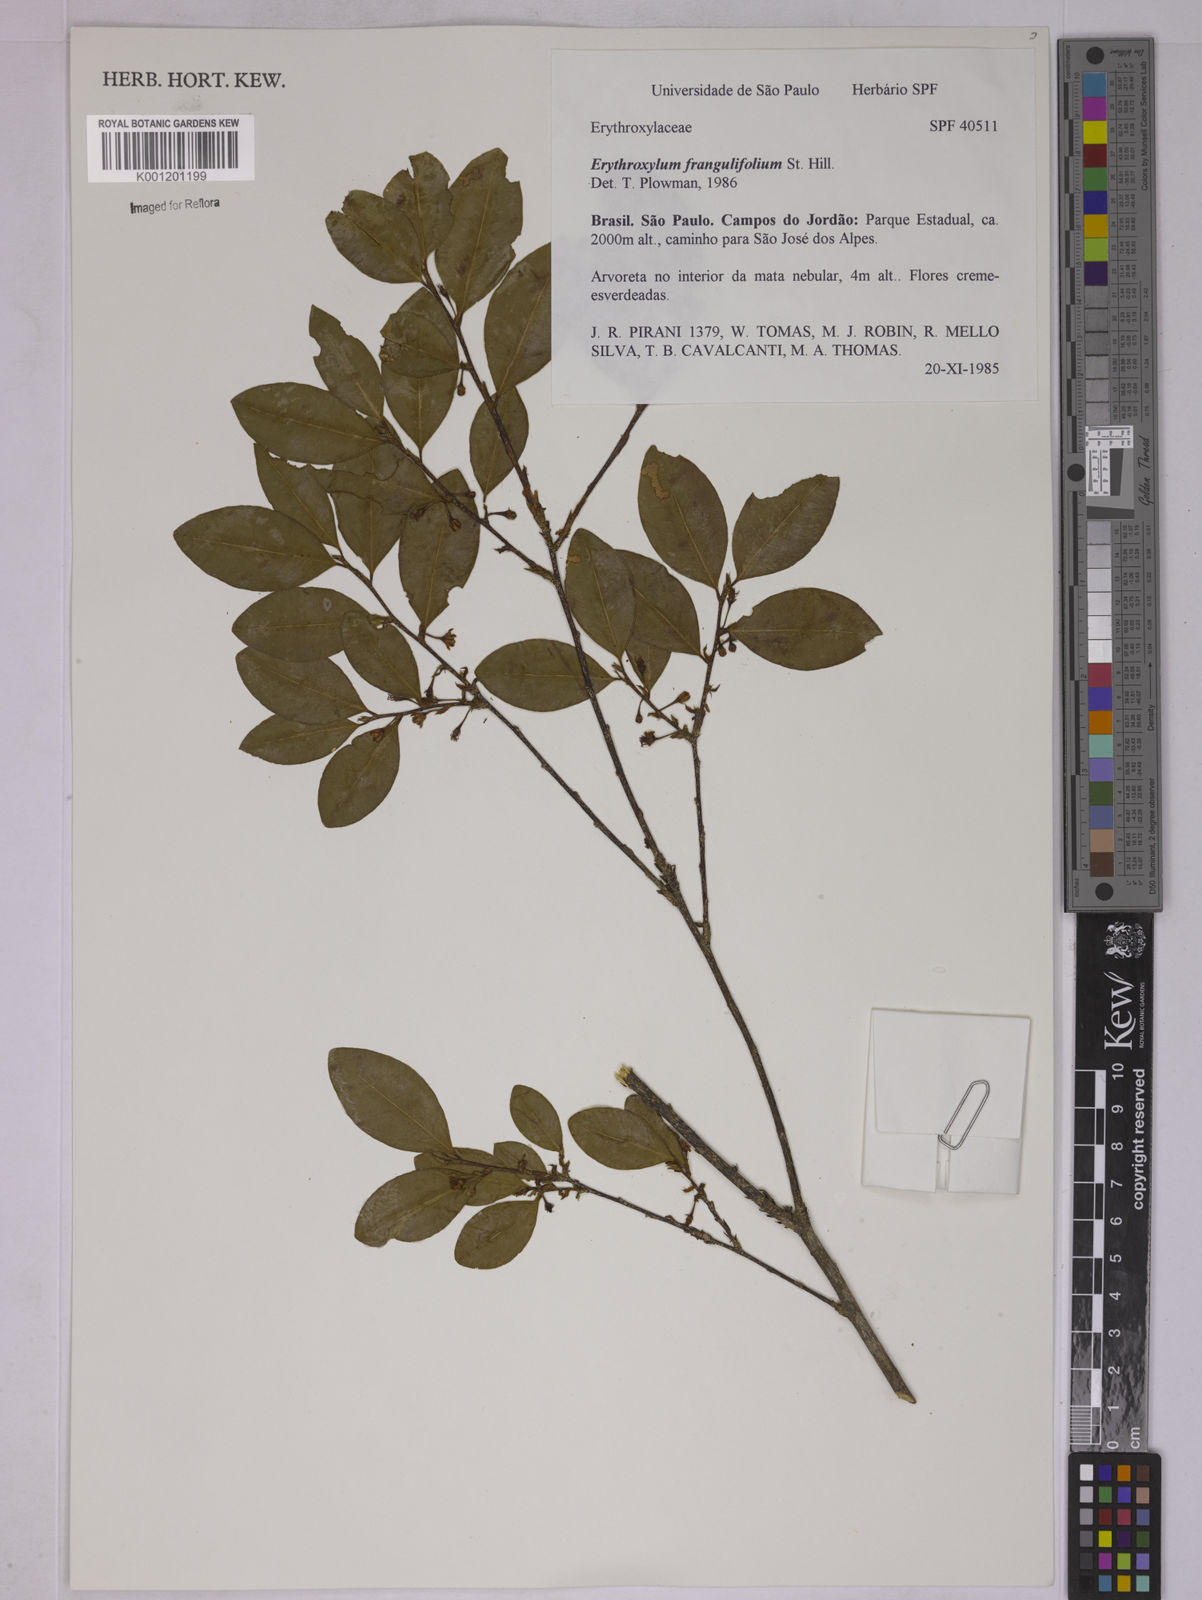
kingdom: Plantae
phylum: Tracheophyta
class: Magnoliopsida
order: Malpighiales
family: Erythroxylaceae
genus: Erythroxylum
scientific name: Erythroxylum frangulifolium
